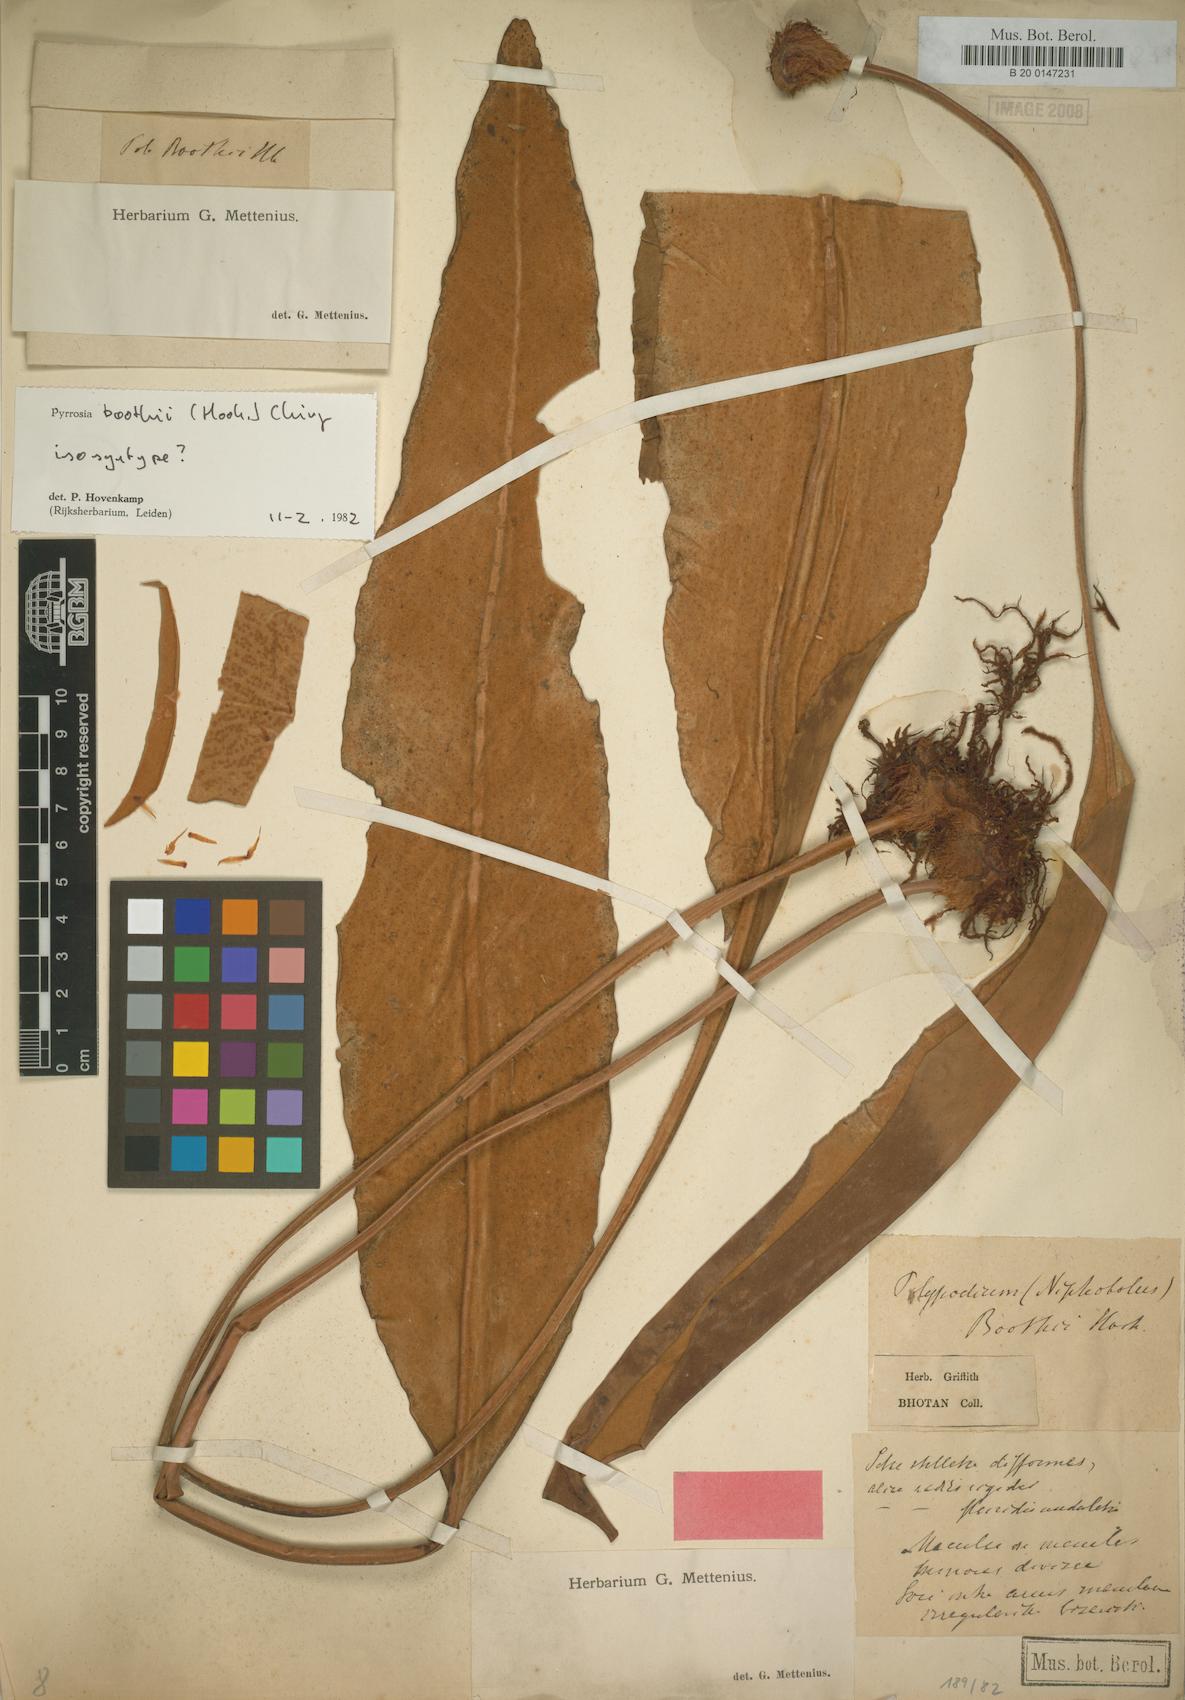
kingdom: Plantae
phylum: Tracheophyta
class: Polypodiopsida
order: Polypodiales
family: Polypodiaceae
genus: Pyrrosia
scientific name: Pyrrosia boothii
